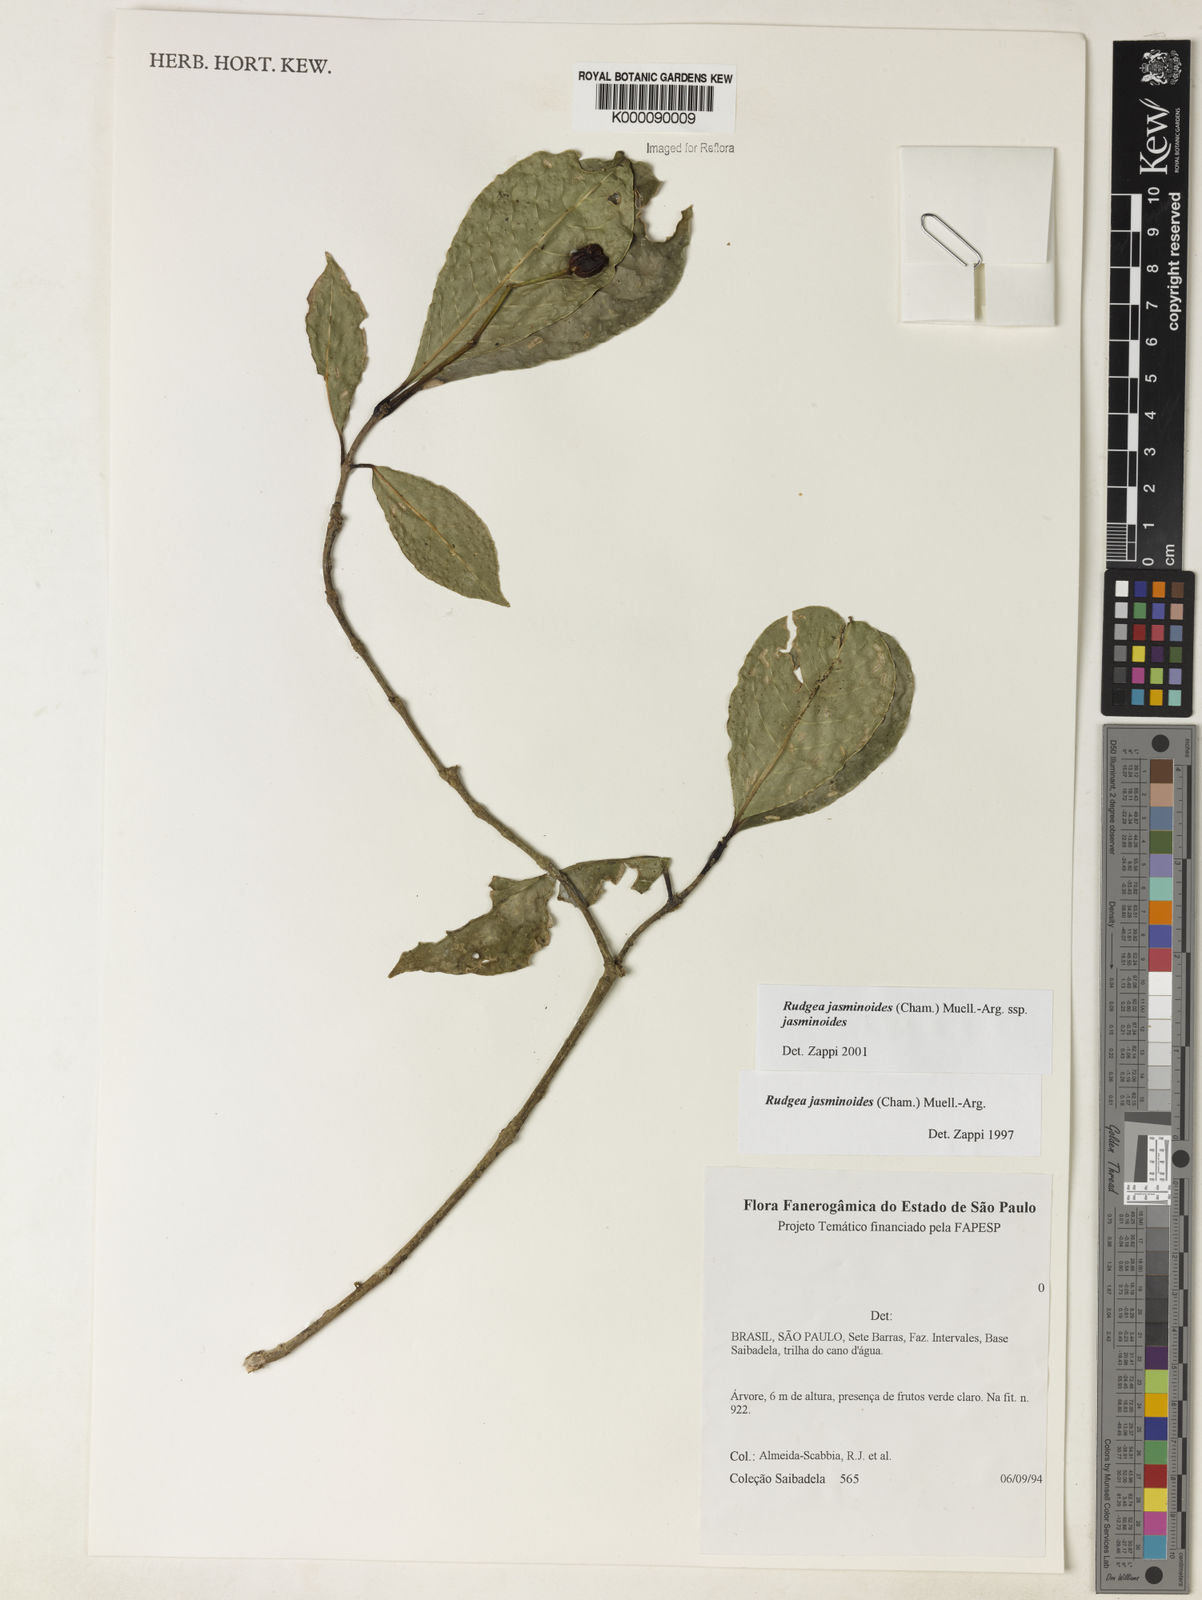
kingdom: Plantae
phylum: Tracheophyta
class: Magnoliopsida
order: Gentianales
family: Rubiaceae
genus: Rudgea
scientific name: Rudgea jasminoides
